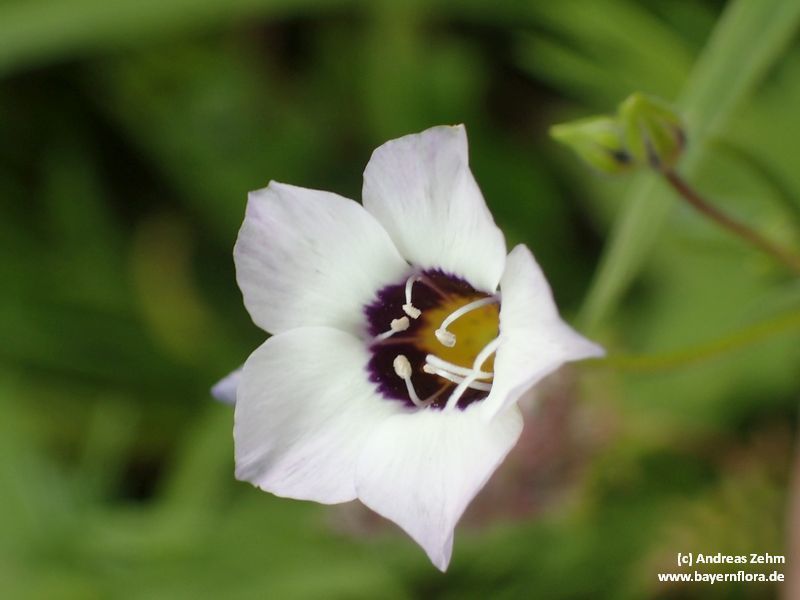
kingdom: Plantae
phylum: Tracheophyta
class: Magnoliopsida
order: Ericales
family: Polemoniaceae
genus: Gilia
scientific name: Gilia tricolor
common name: Bird's-eyes
